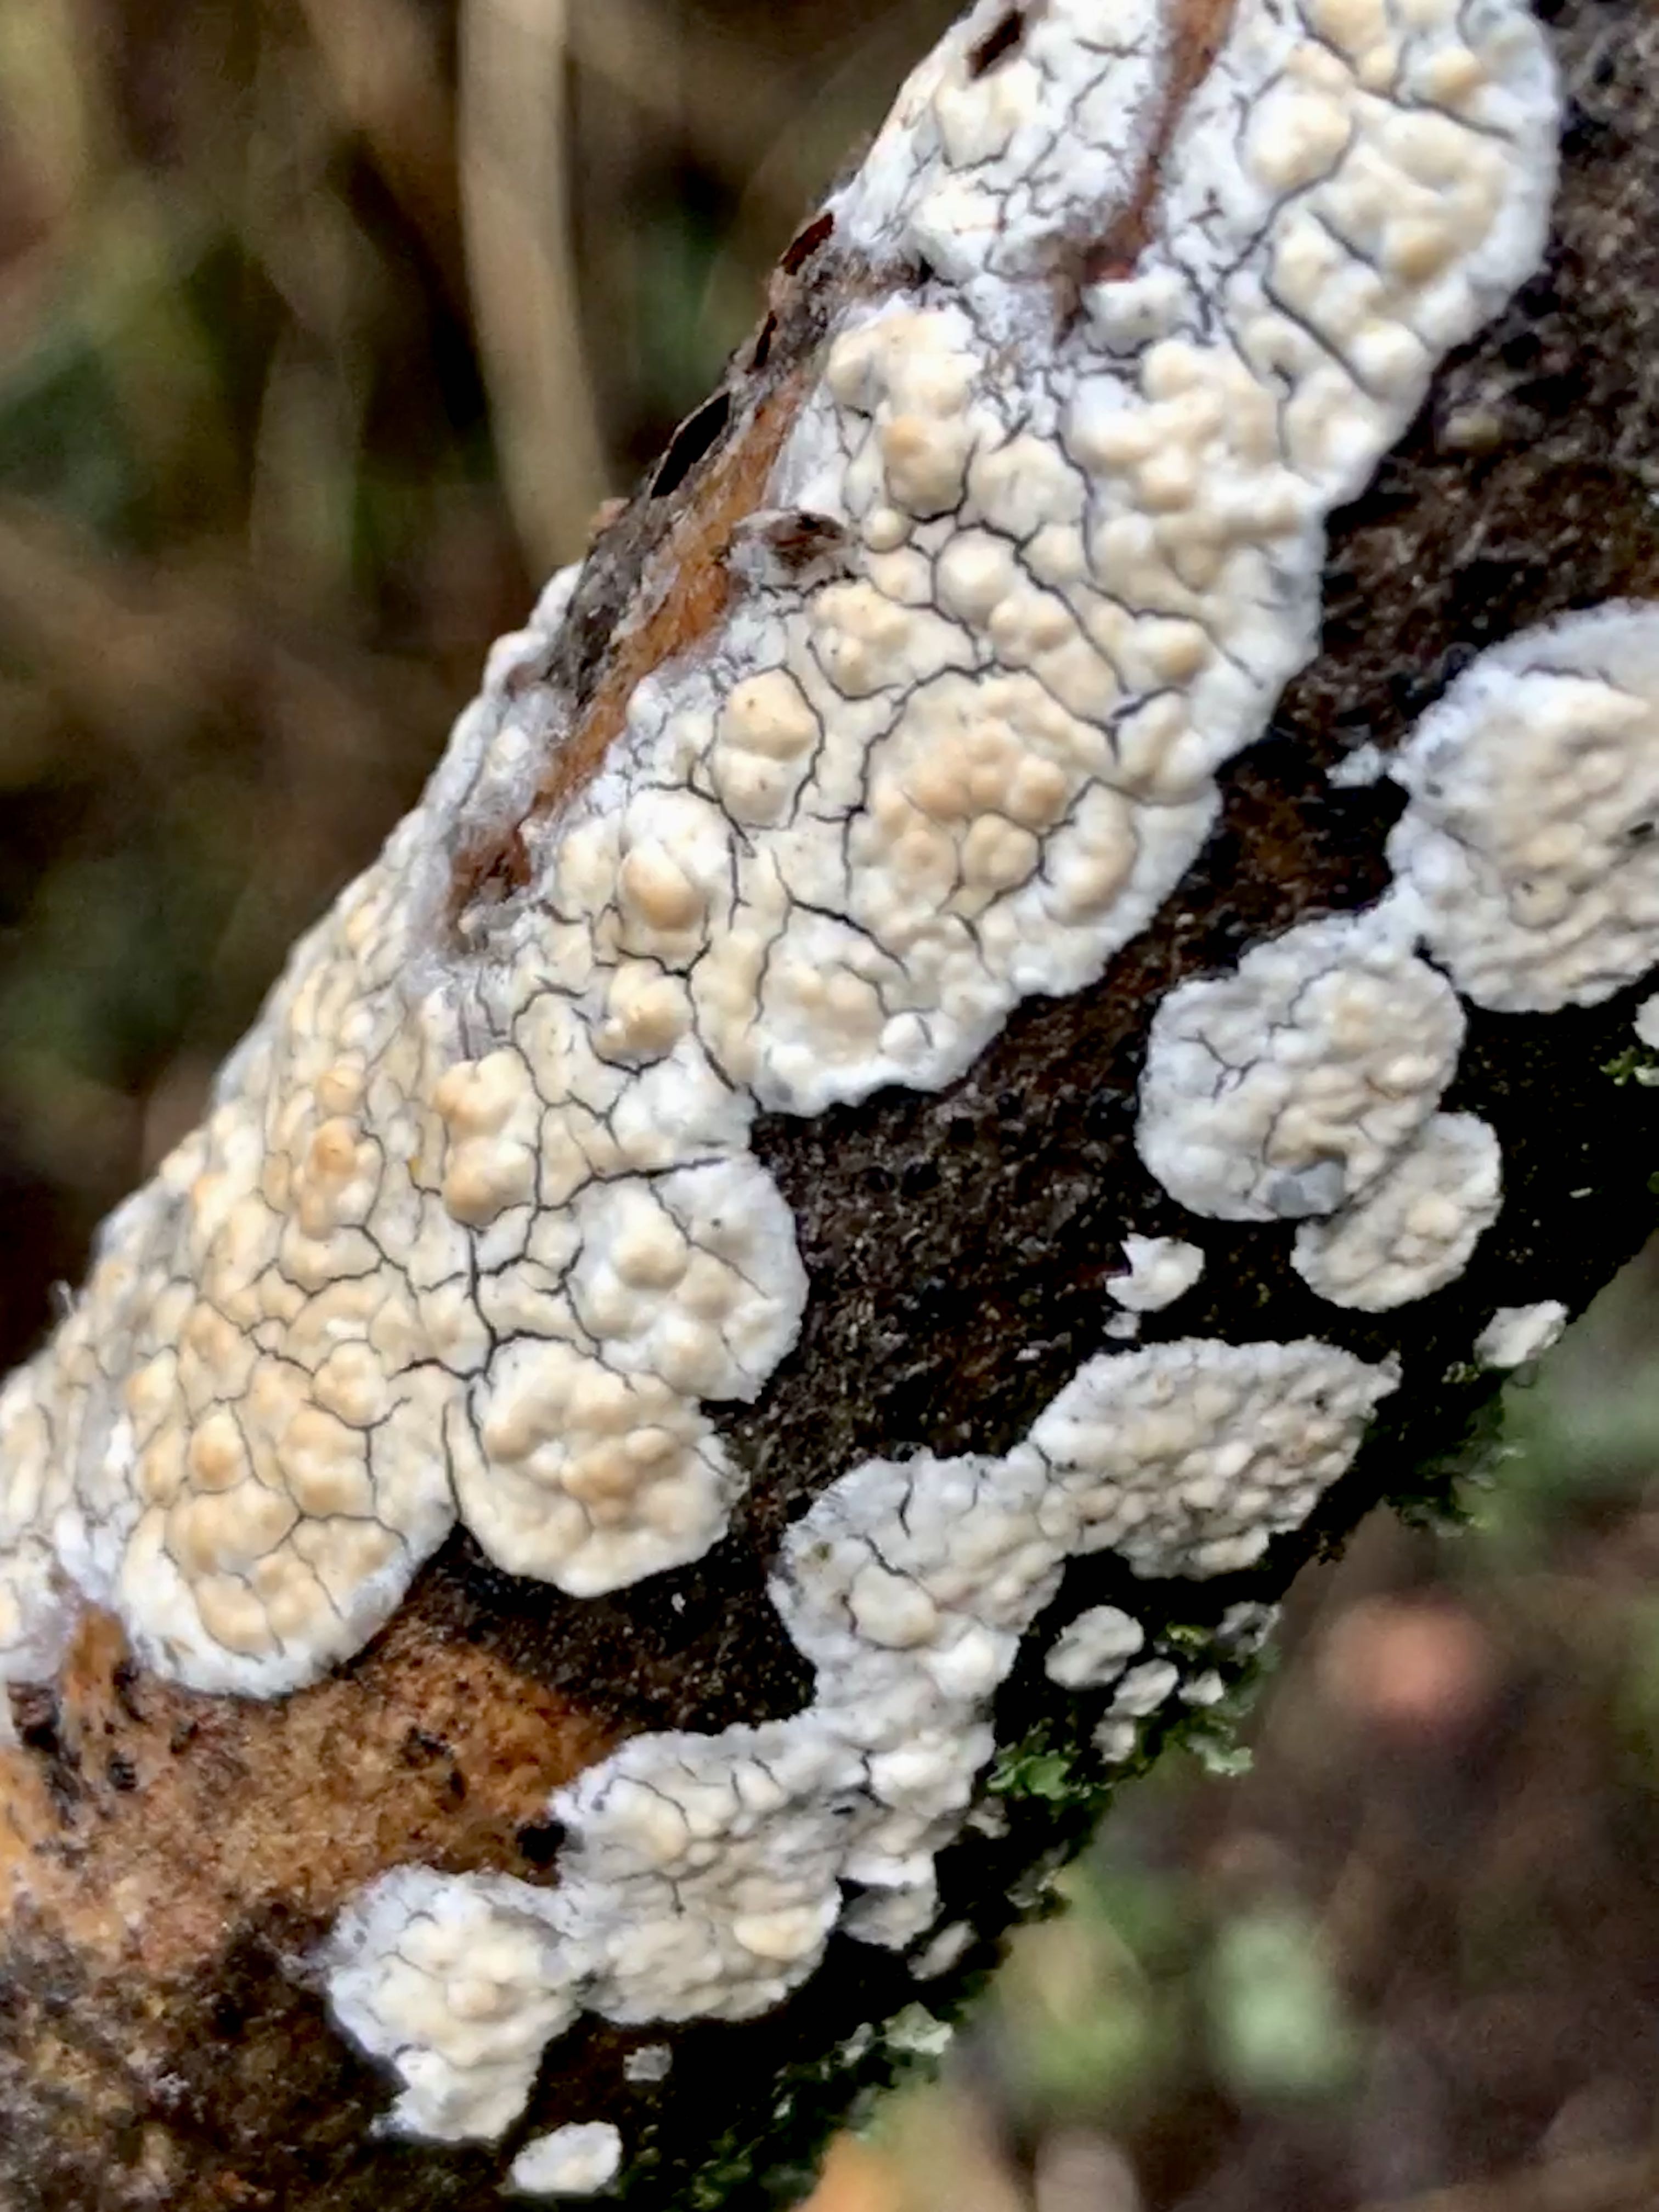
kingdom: Fungi
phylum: Basidiomycota
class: Agaricomycetes
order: Agaricales
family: Physalacriaceae
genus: Cylindrobasidium
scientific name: Cylindrobasidium evolvens
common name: sprækkehinde
